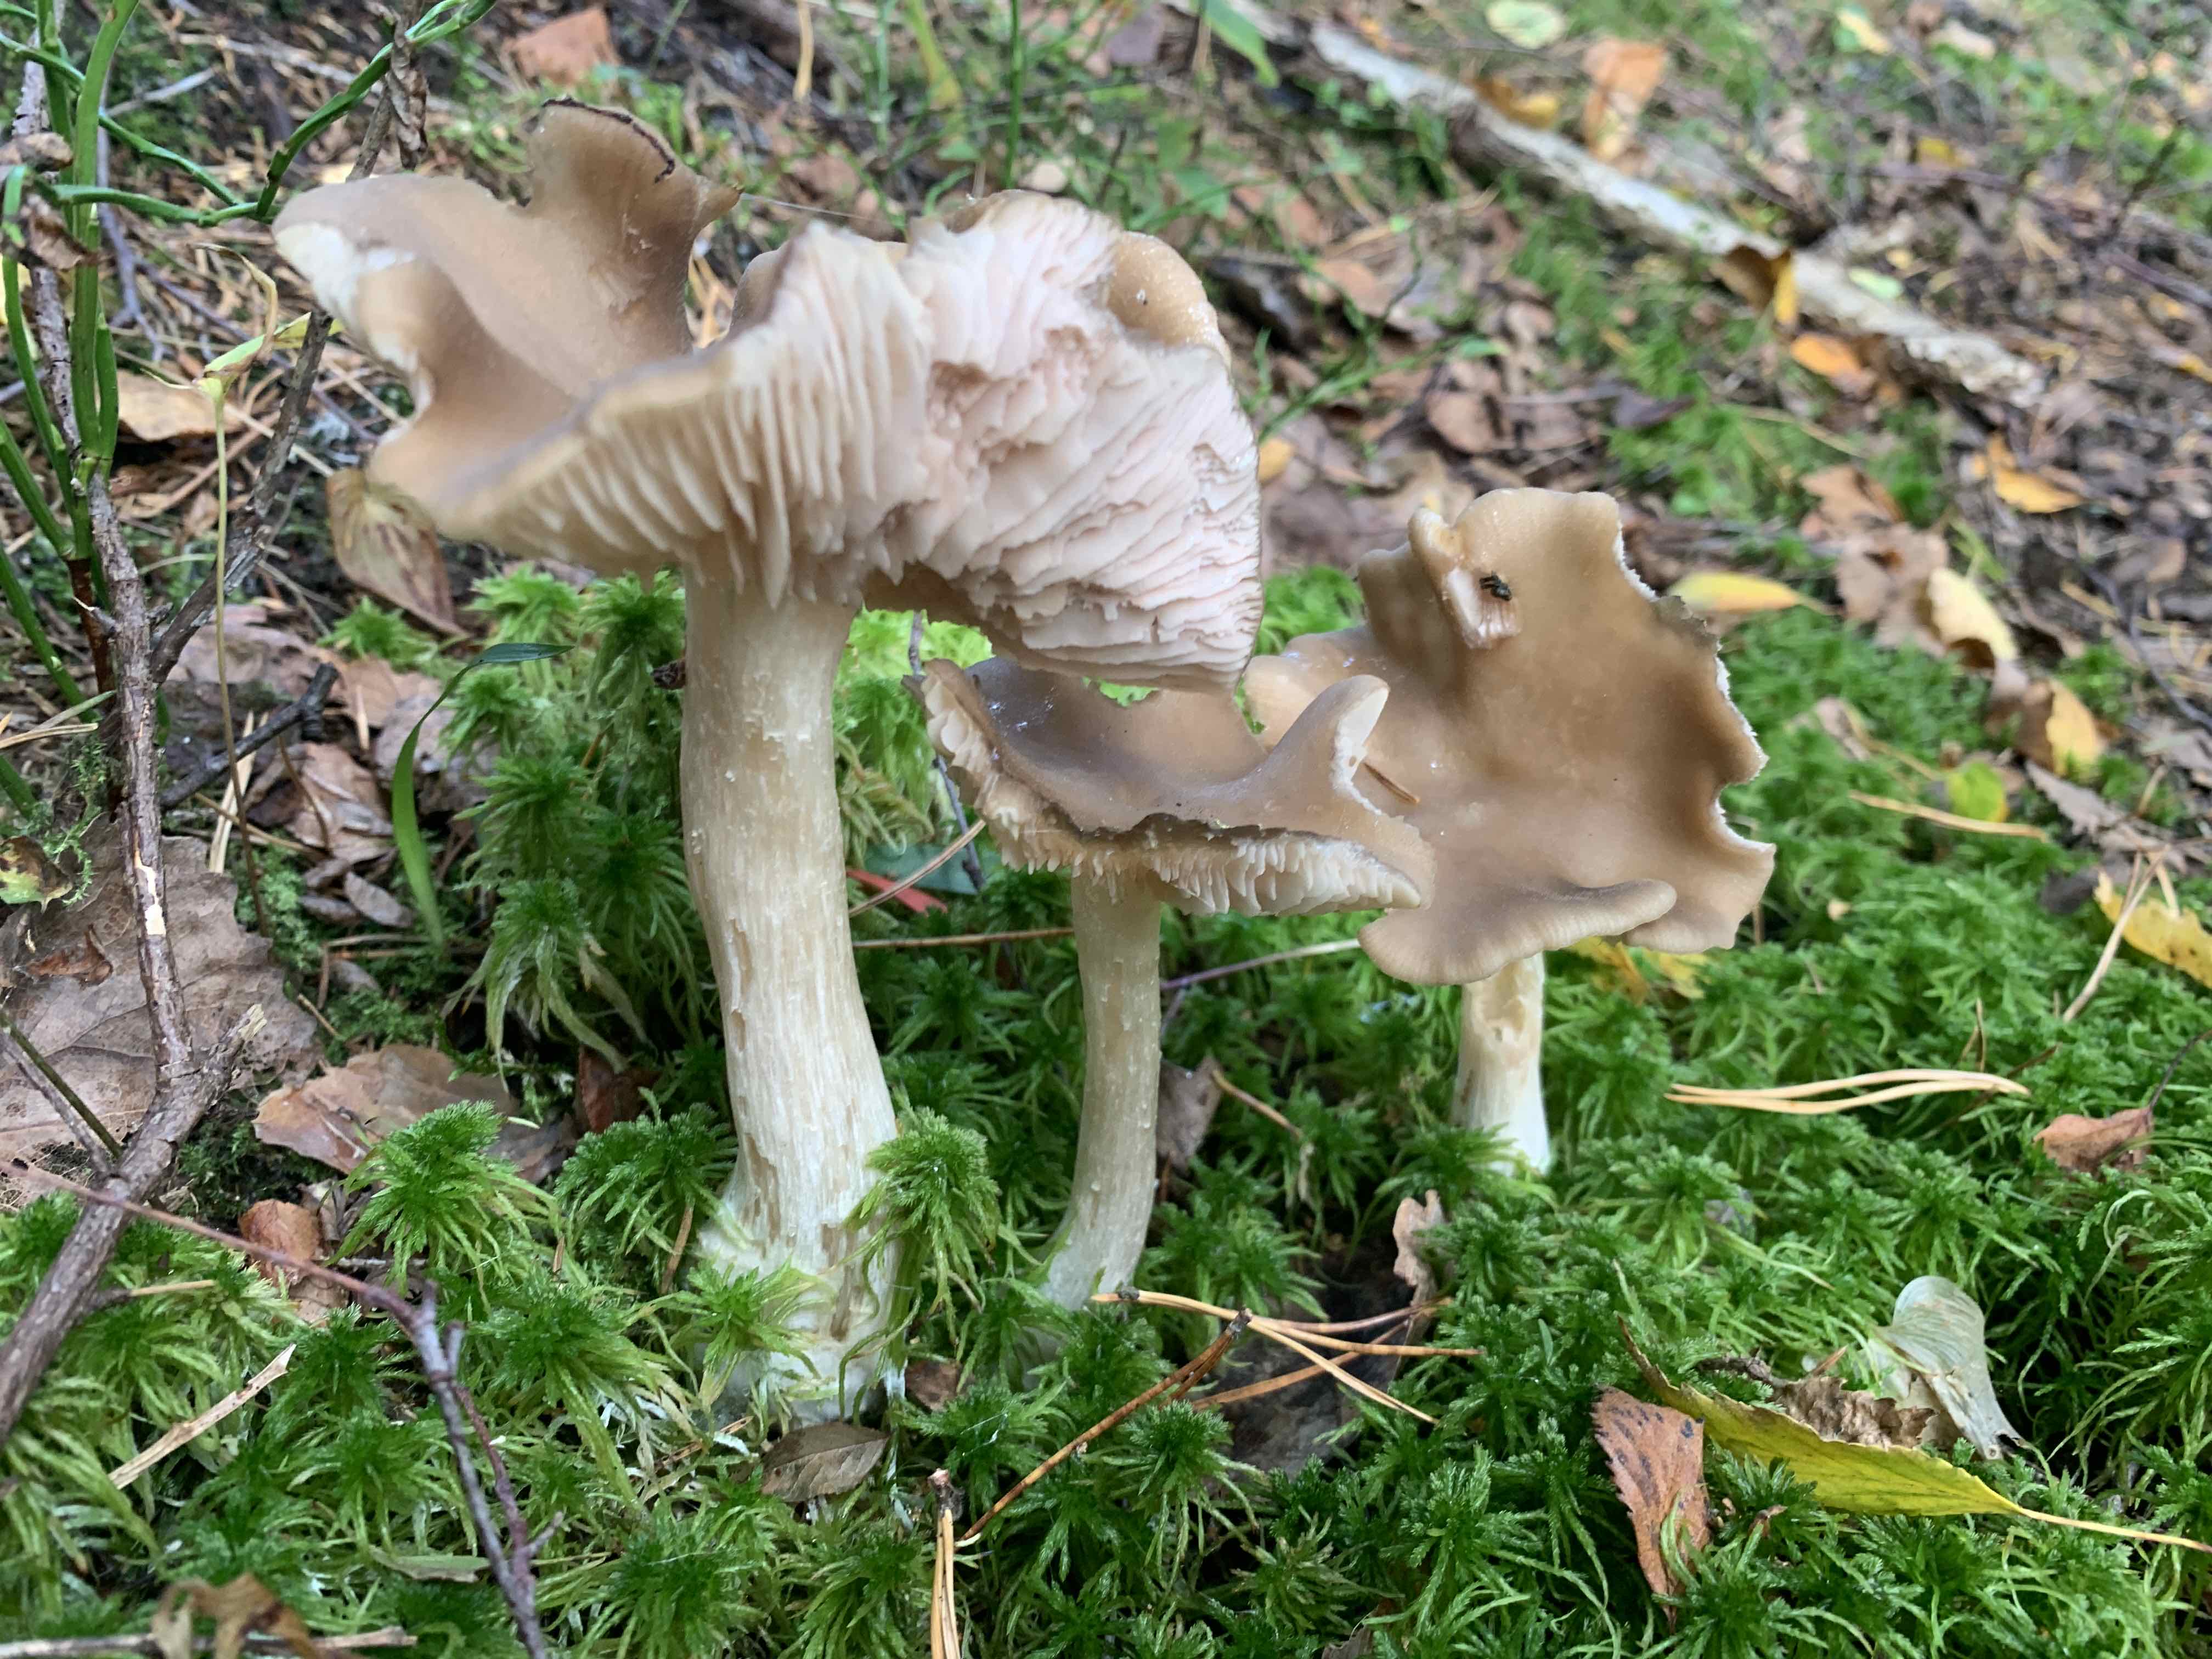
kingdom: Fungi
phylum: Basidiomycota
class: Agaricomycetes
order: Agaricales
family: Entolomataceae
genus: Entoloma
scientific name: Entoloma sericatum
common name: rank rødblad
